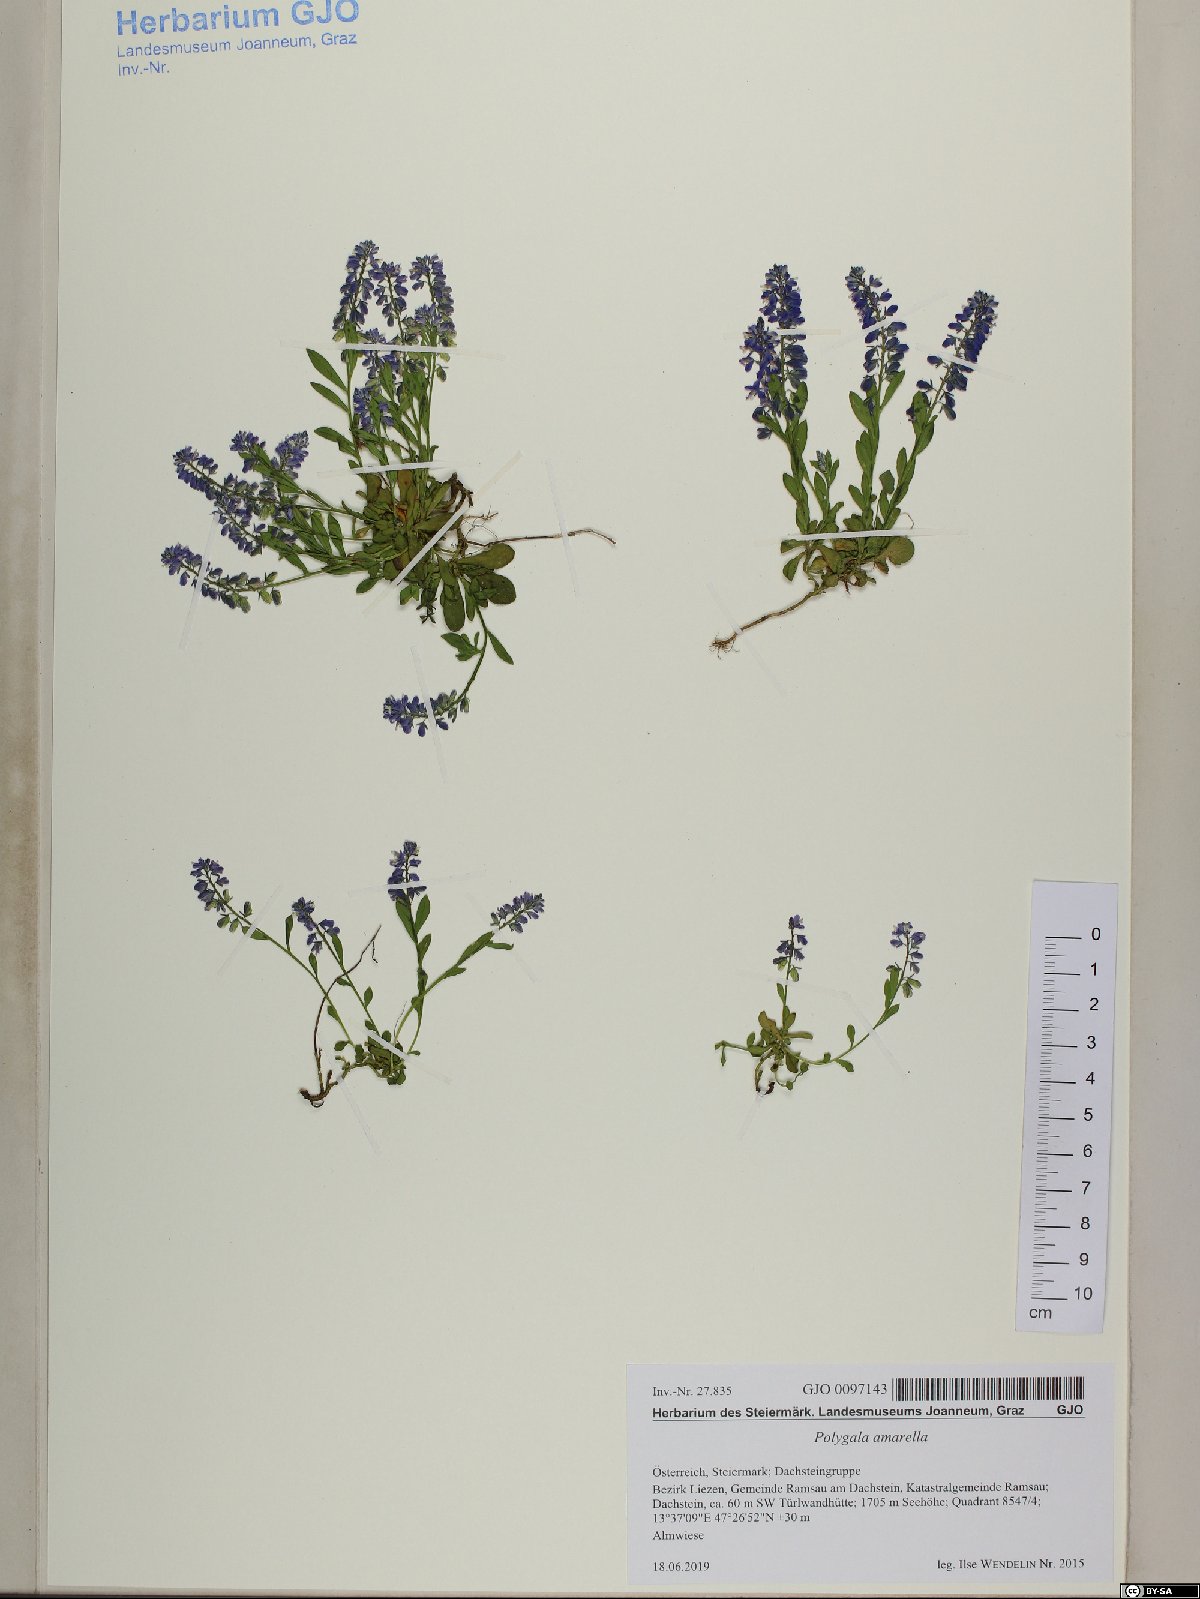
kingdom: Plantae
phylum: Tracheophyta
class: Magnoliopsida
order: Fabales
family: Polygalaceae
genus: Polygala
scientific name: Polygala amarella
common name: Dwarf milkwort
